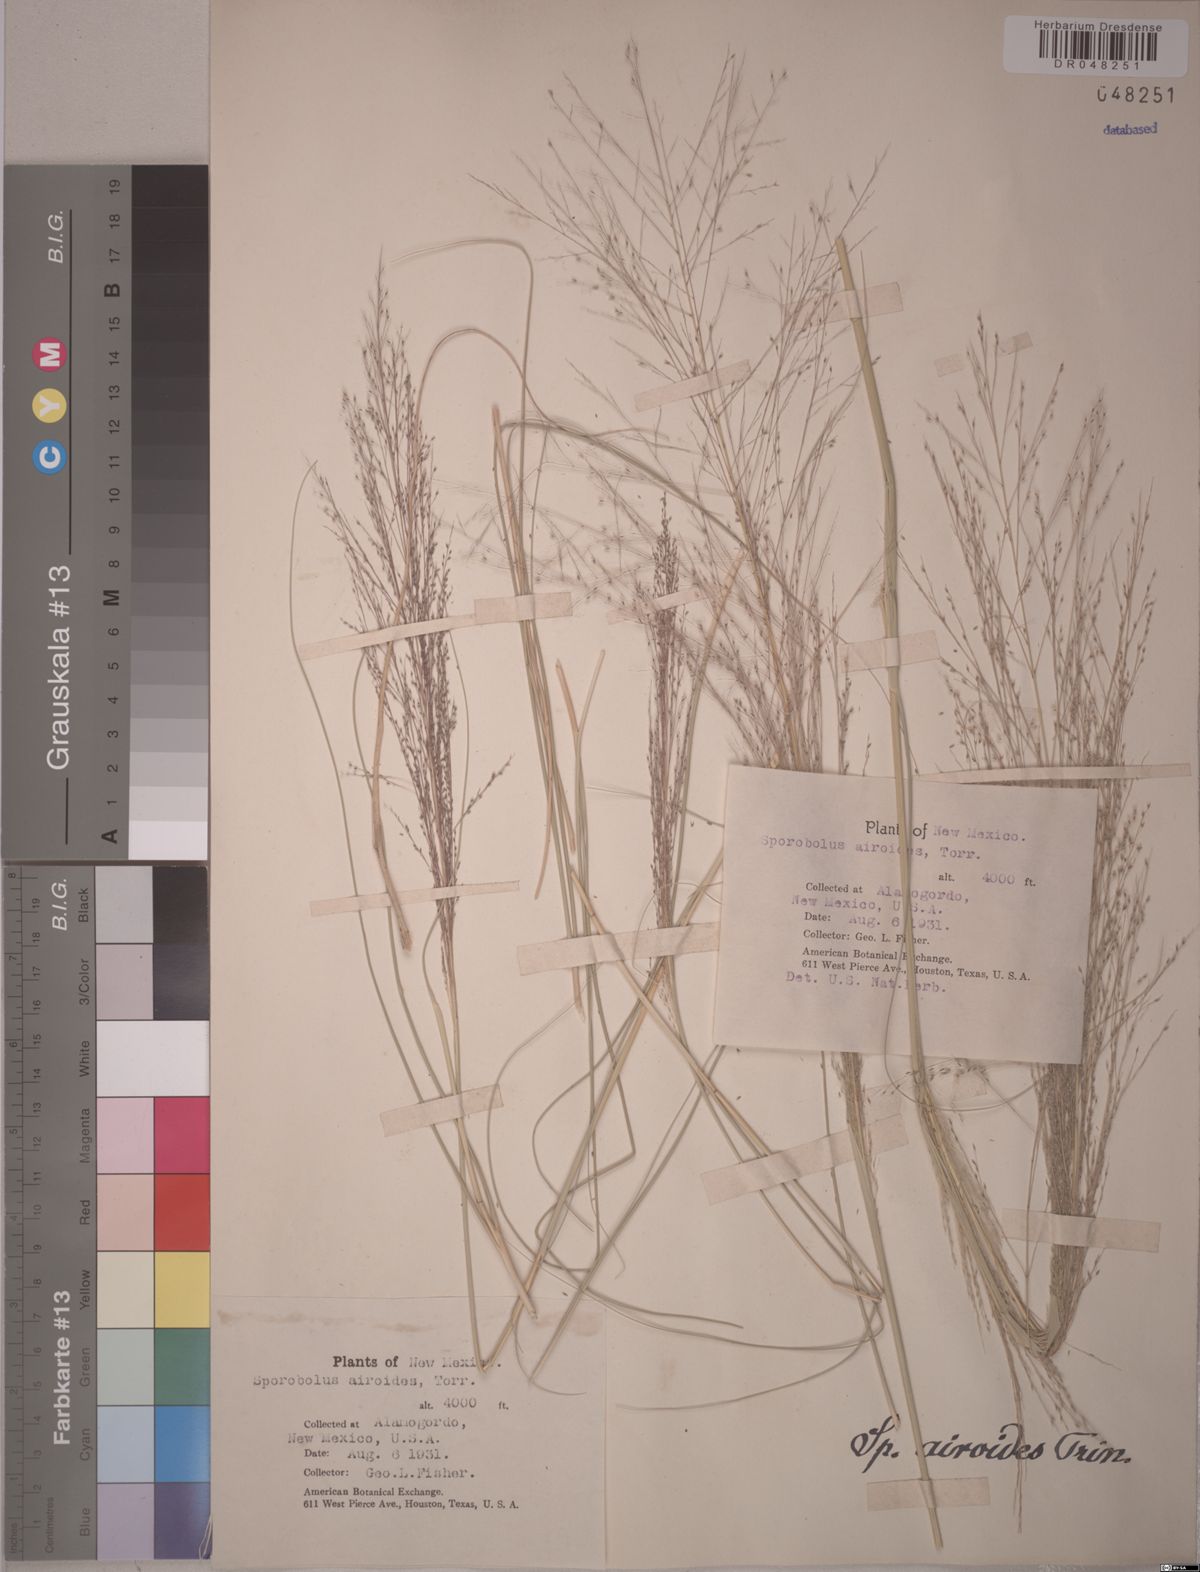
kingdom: Plantae
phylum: Tracheophyta
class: Liliopsida
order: Poales
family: Poaceae
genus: Sporobolus
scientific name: Sporobolus airoides
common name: Alkali sacaton
